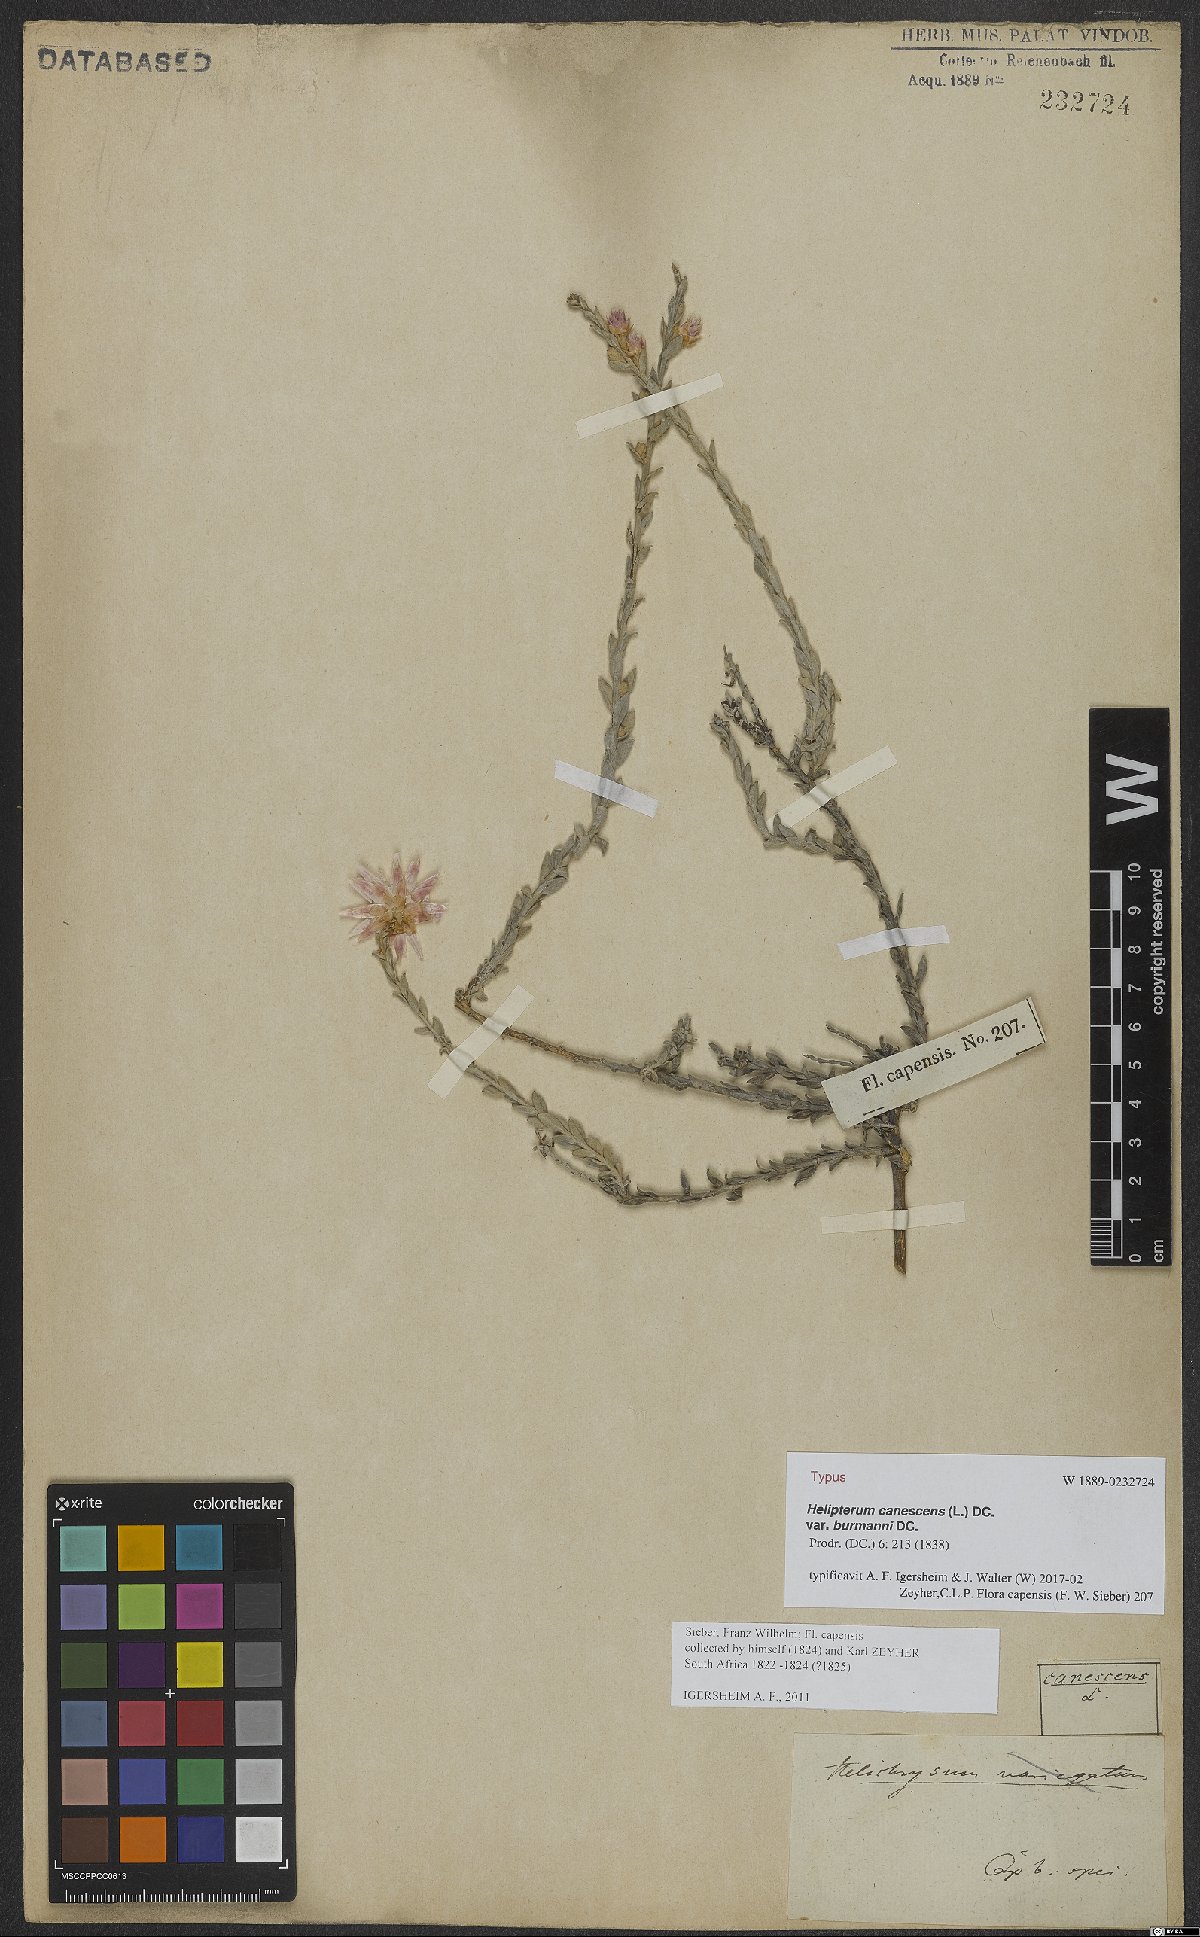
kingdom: Plantae
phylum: Tracheophyta
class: Magnoliopsida
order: Asterales
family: Asteraceae
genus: Syncarpha
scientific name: Syncarpha canescens
